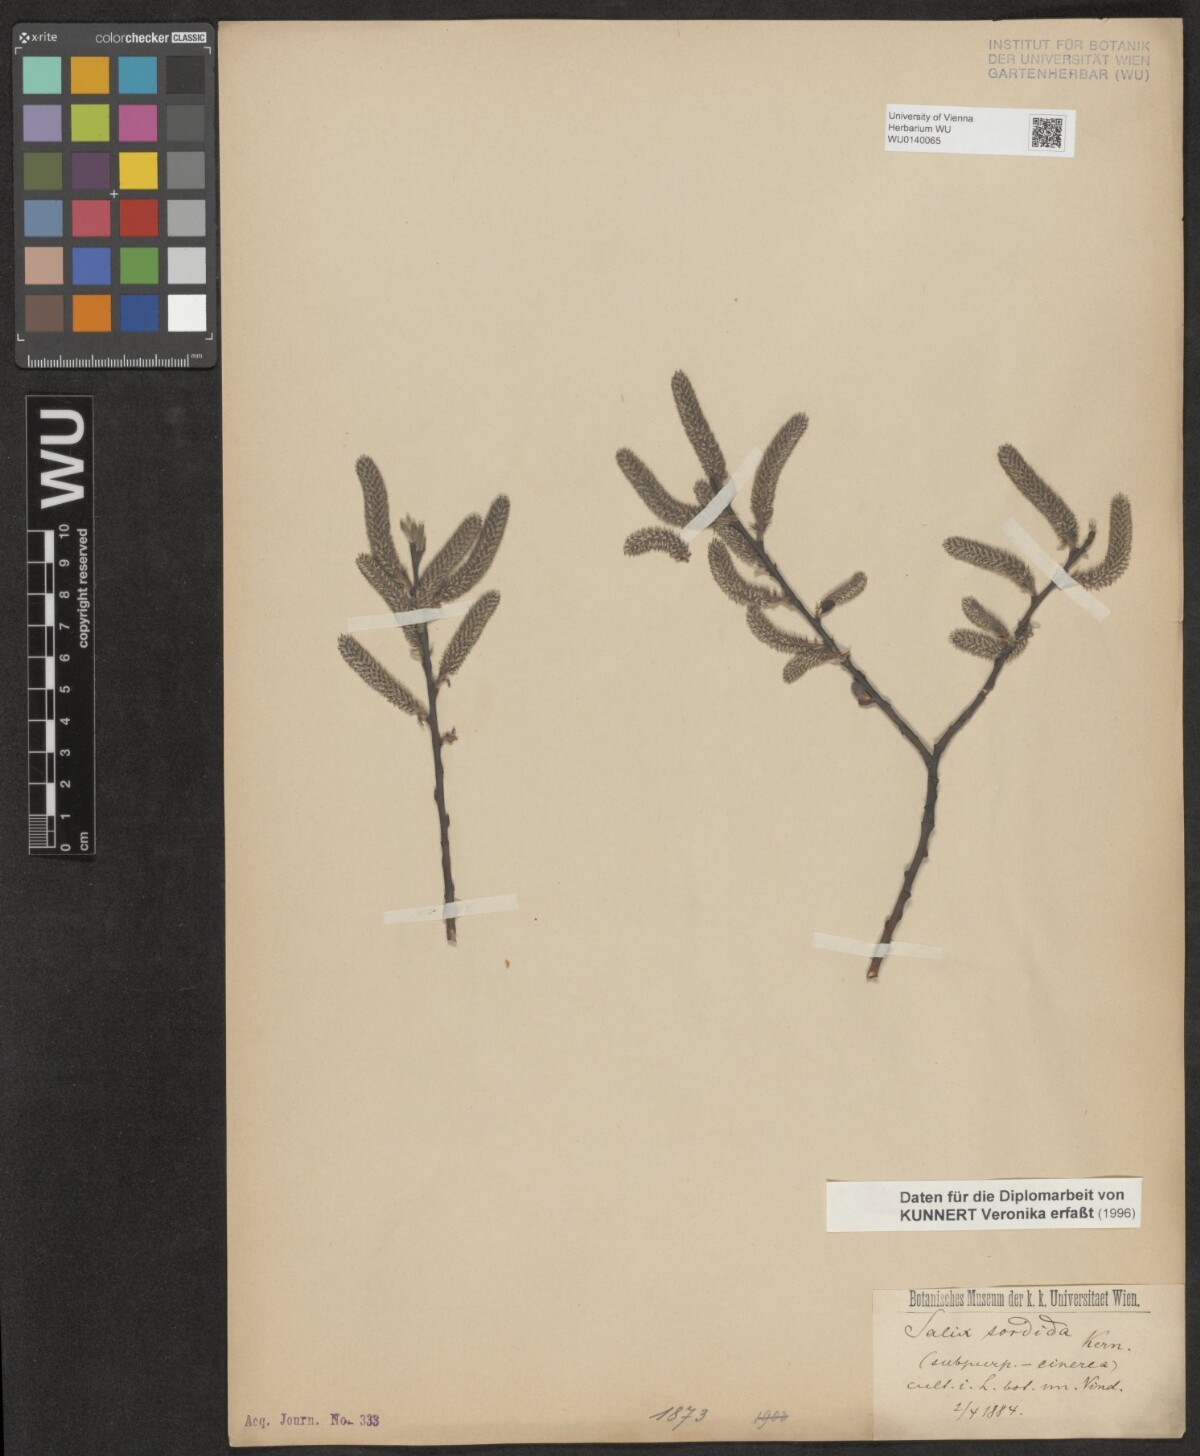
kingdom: Plantae
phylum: Tracheophyta
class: Magnoliopsida
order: Malpighiales
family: Salicaceae
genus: Salix
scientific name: Salix sordida
